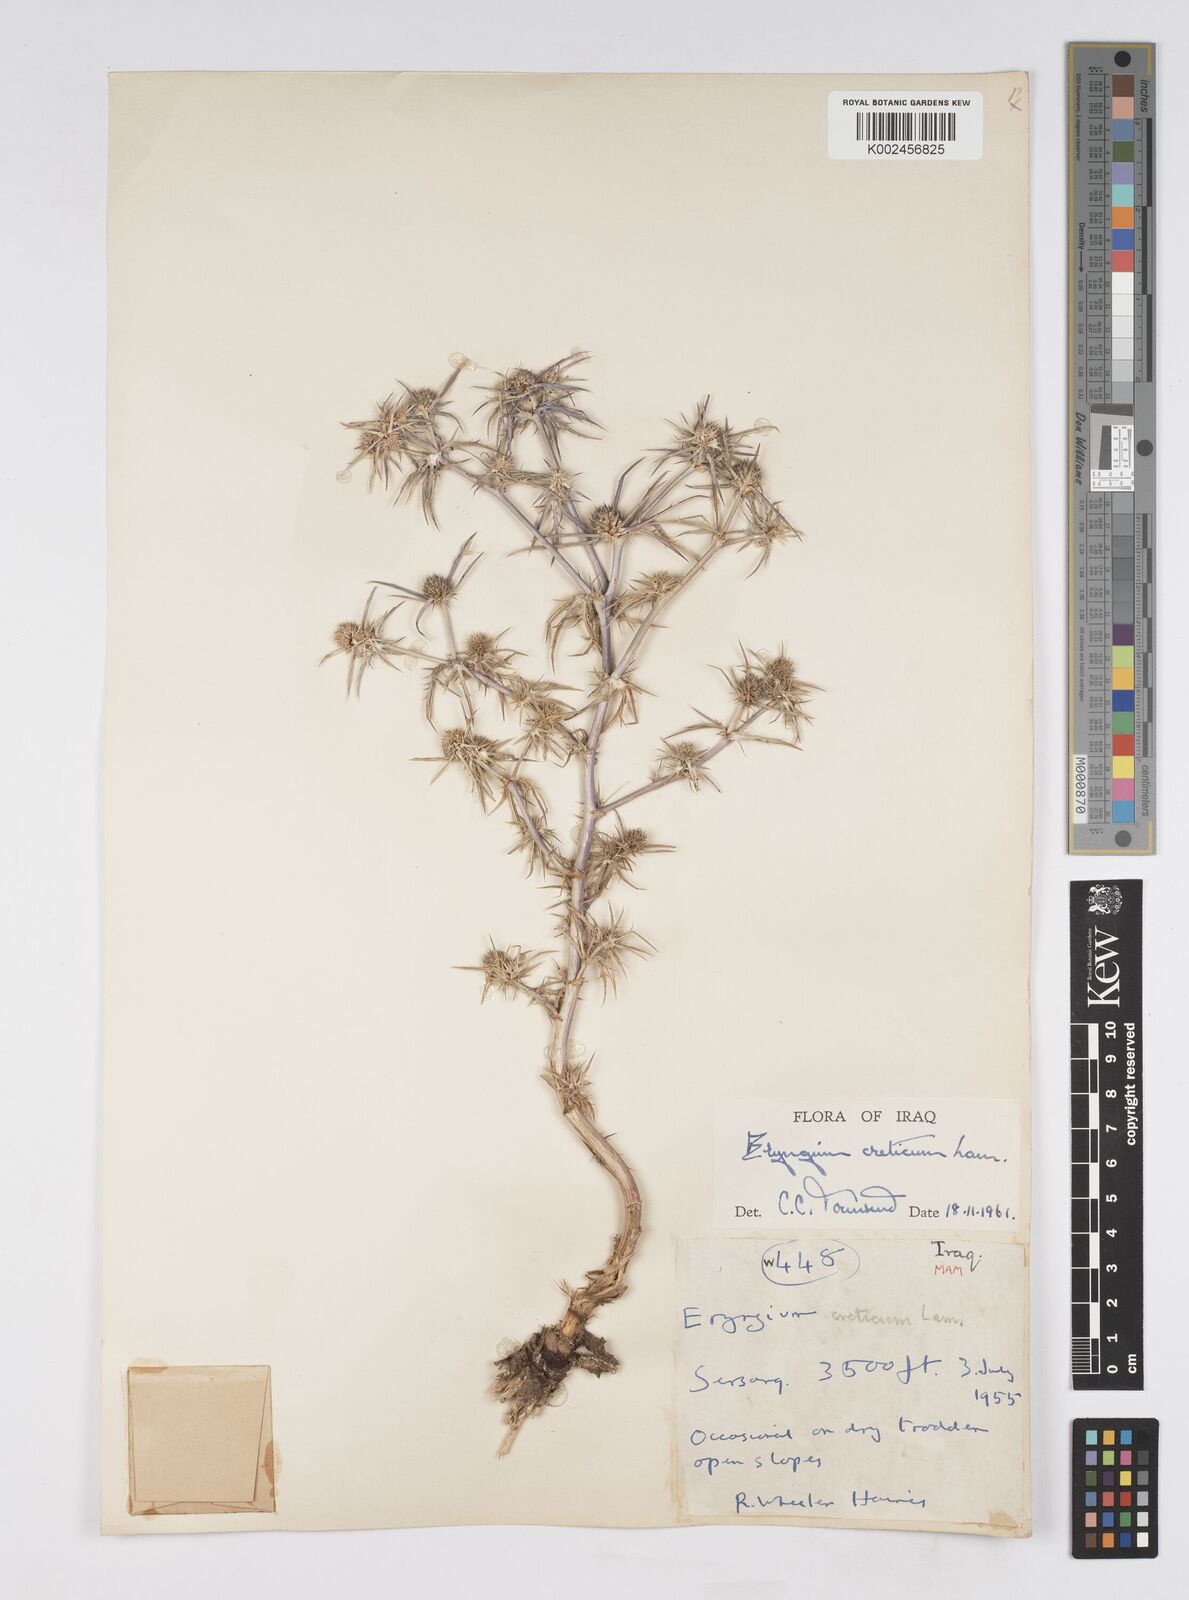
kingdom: Plantae
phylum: Tracheophyta
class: Magnoliopsida
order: Apiales
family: Apiaceae
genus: Eryngium
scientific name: Eryngium creticum
